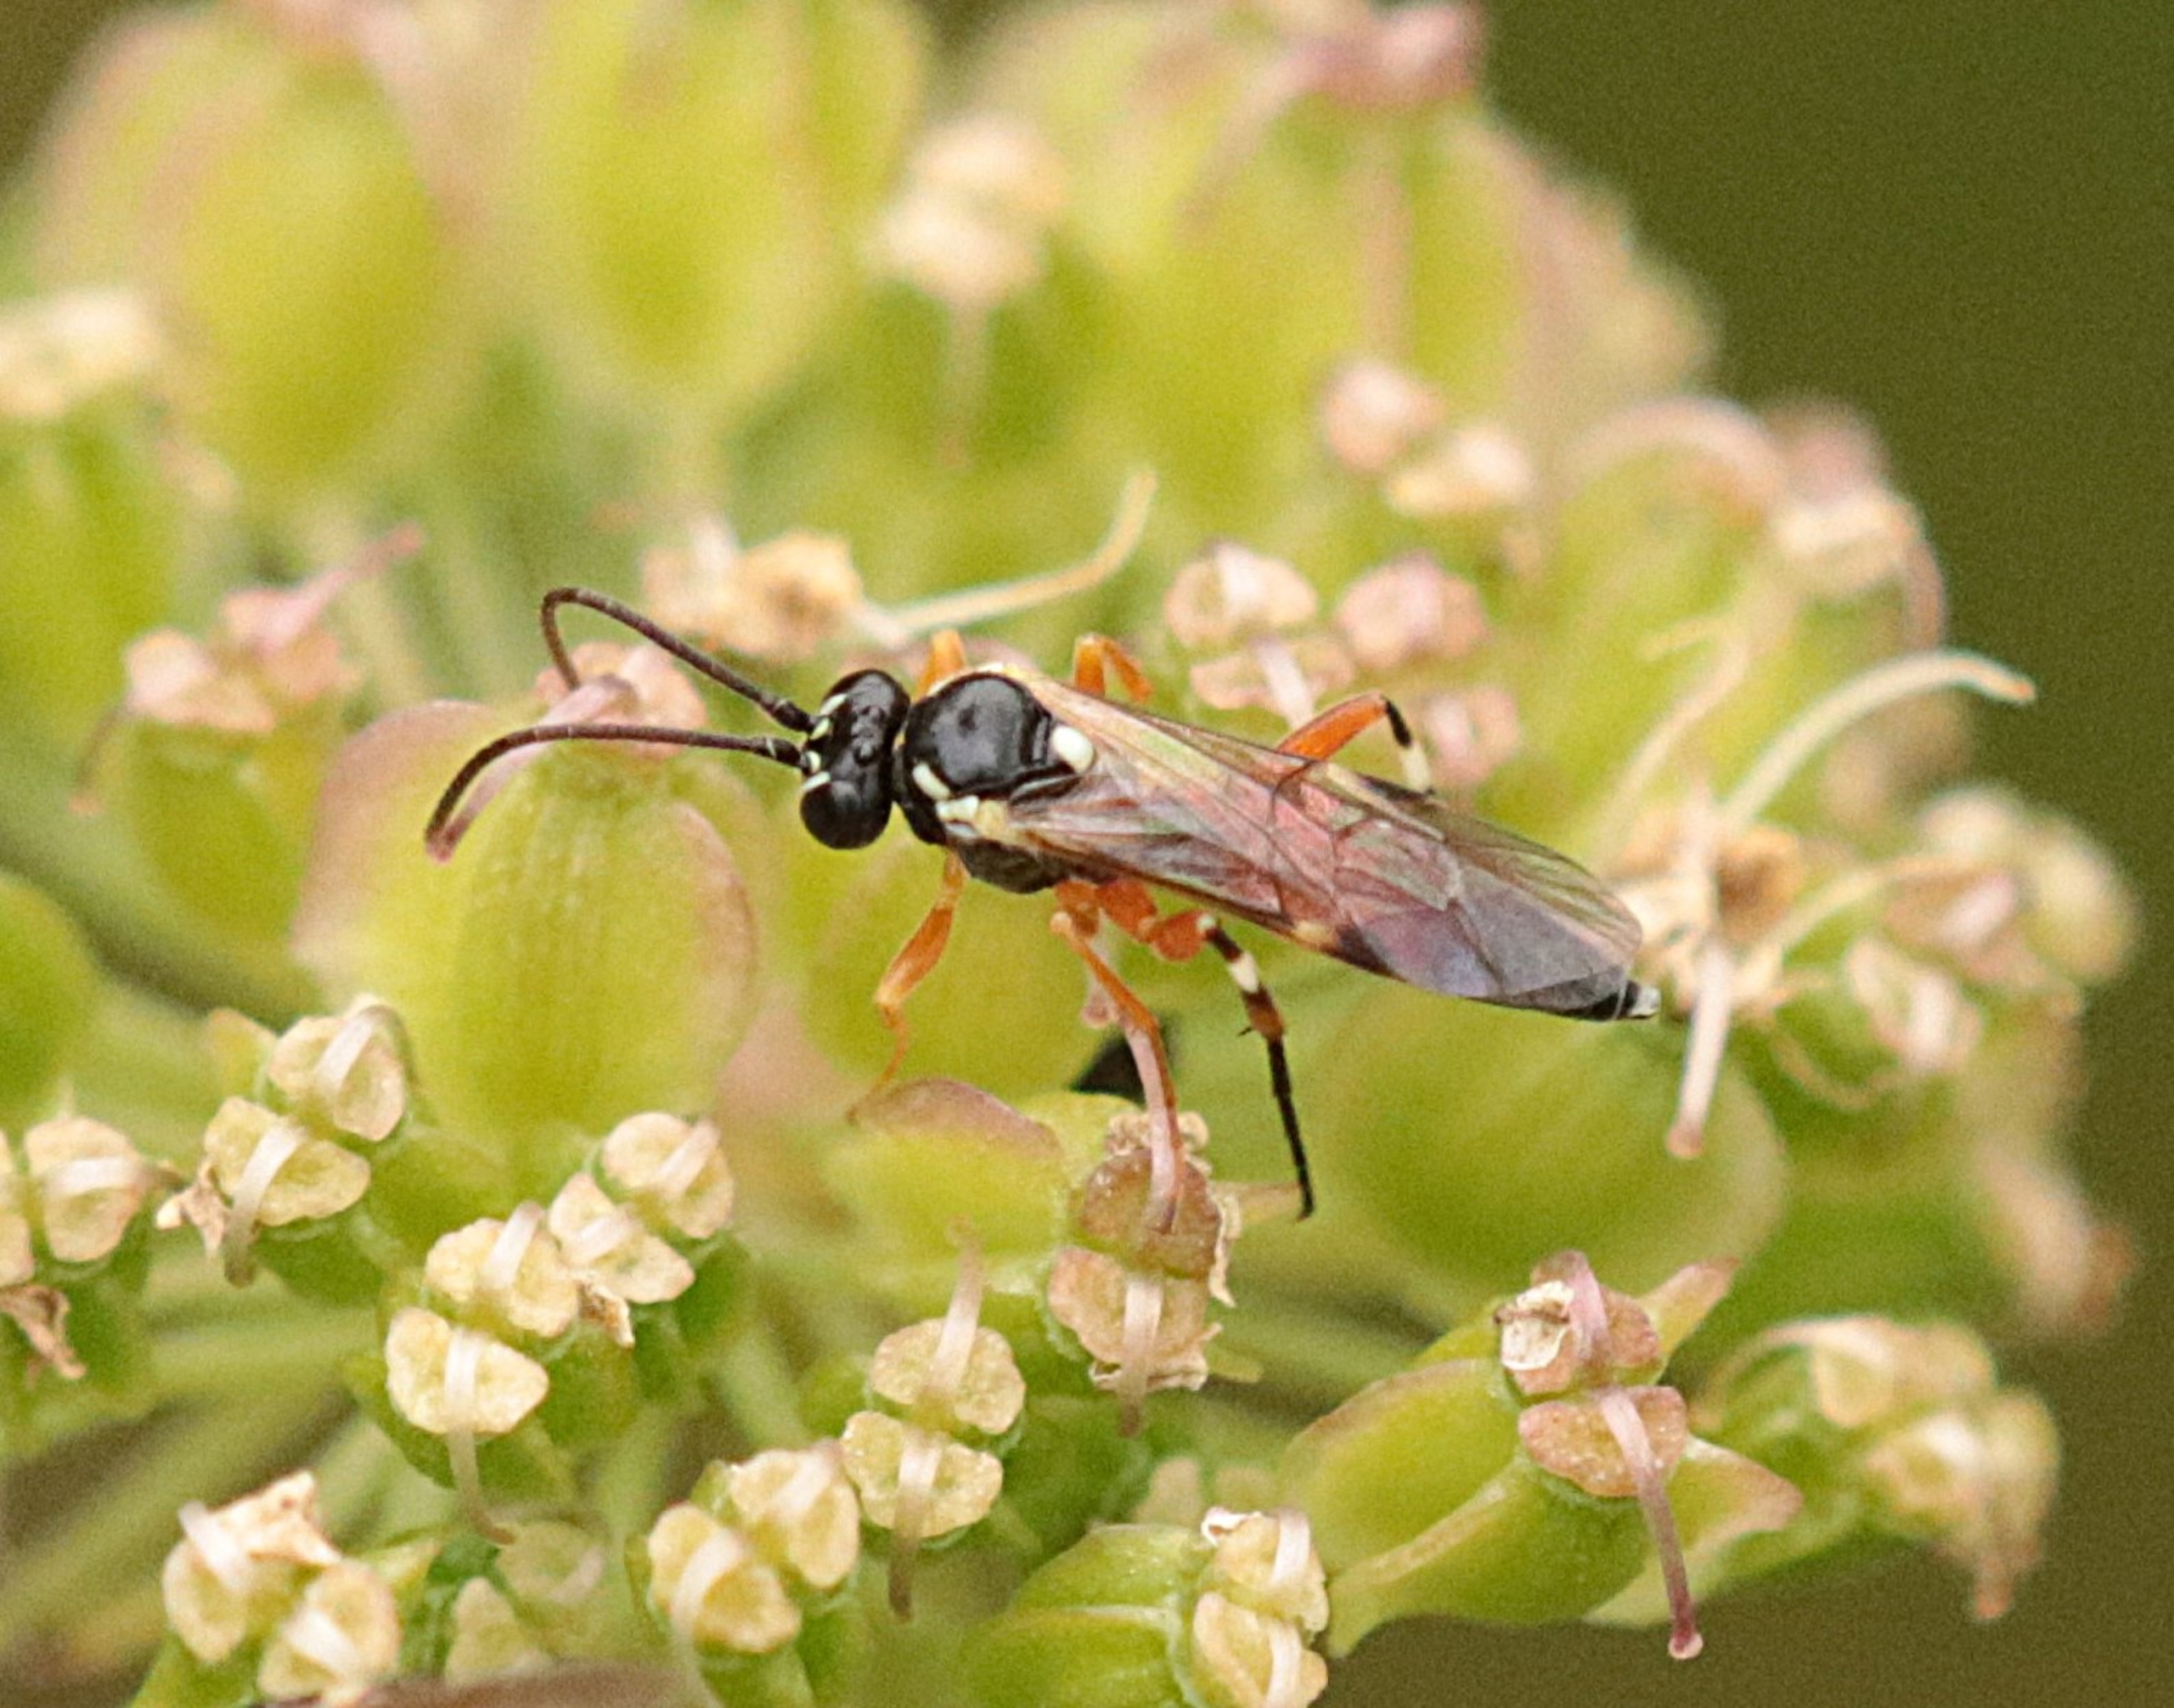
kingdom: Animalia
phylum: Arthropoda
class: Insecta
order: Hymenoptera
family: Ichneumonidae
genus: Diplazon
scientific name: Diplazon laetatorius
